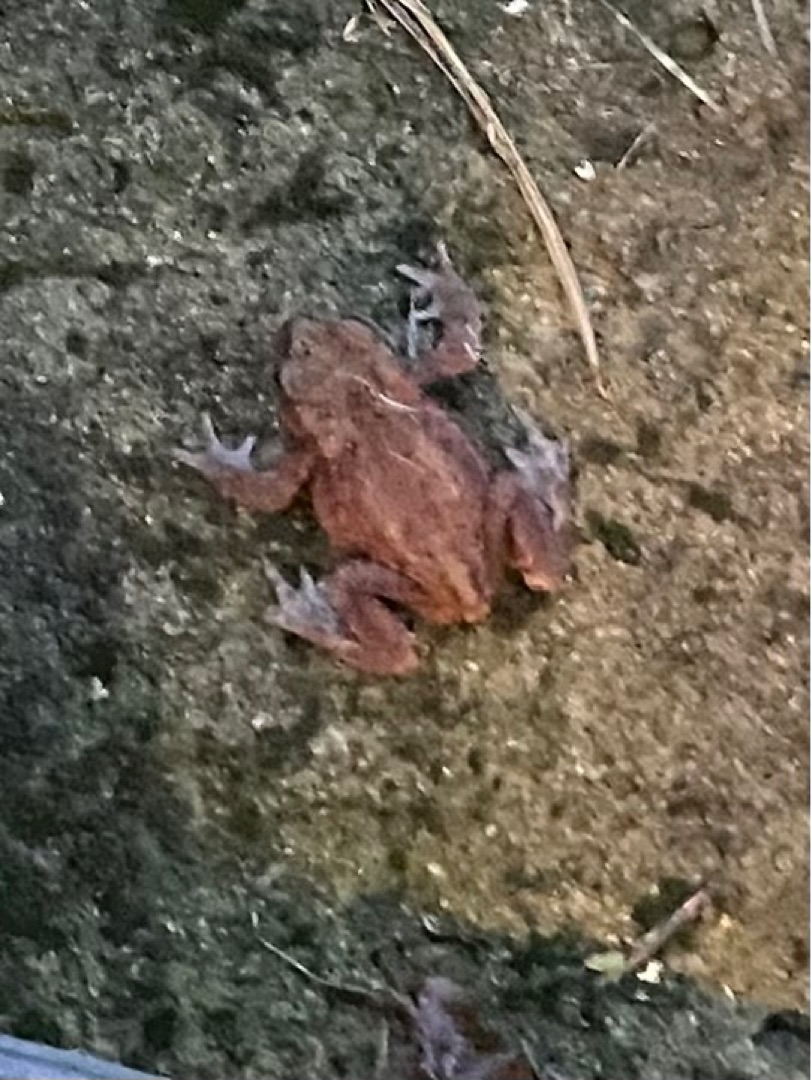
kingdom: Animalia
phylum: Chordata
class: Amphibia
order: Anura
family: Bufonidae
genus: Bufo
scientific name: Bufo bufo
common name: Skrubtudse
